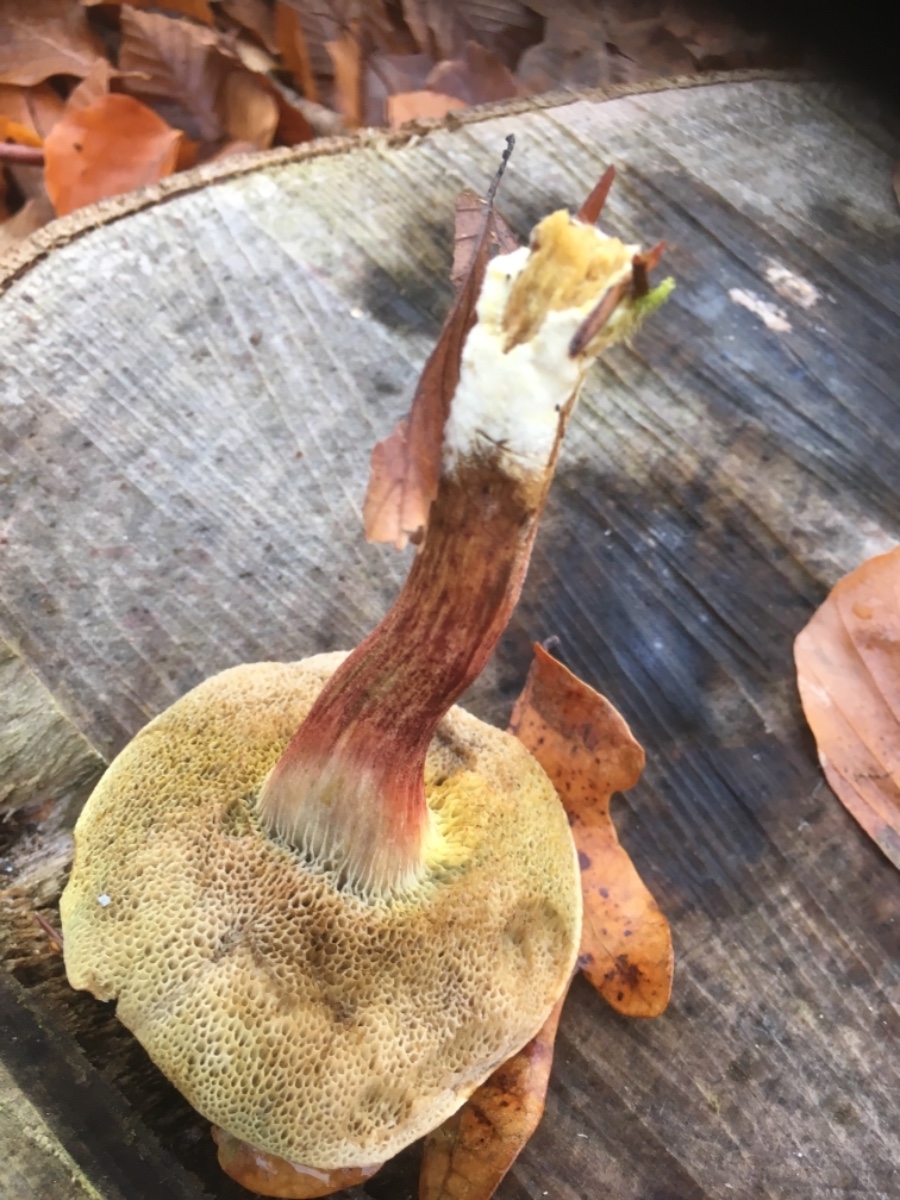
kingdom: Fungi
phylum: Basidiomycota
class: Agaricomycetes
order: Boletales
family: Boletaceae
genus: Xerocomellus
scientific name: Xerocomellus pruinatus
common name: dugget rørhat
